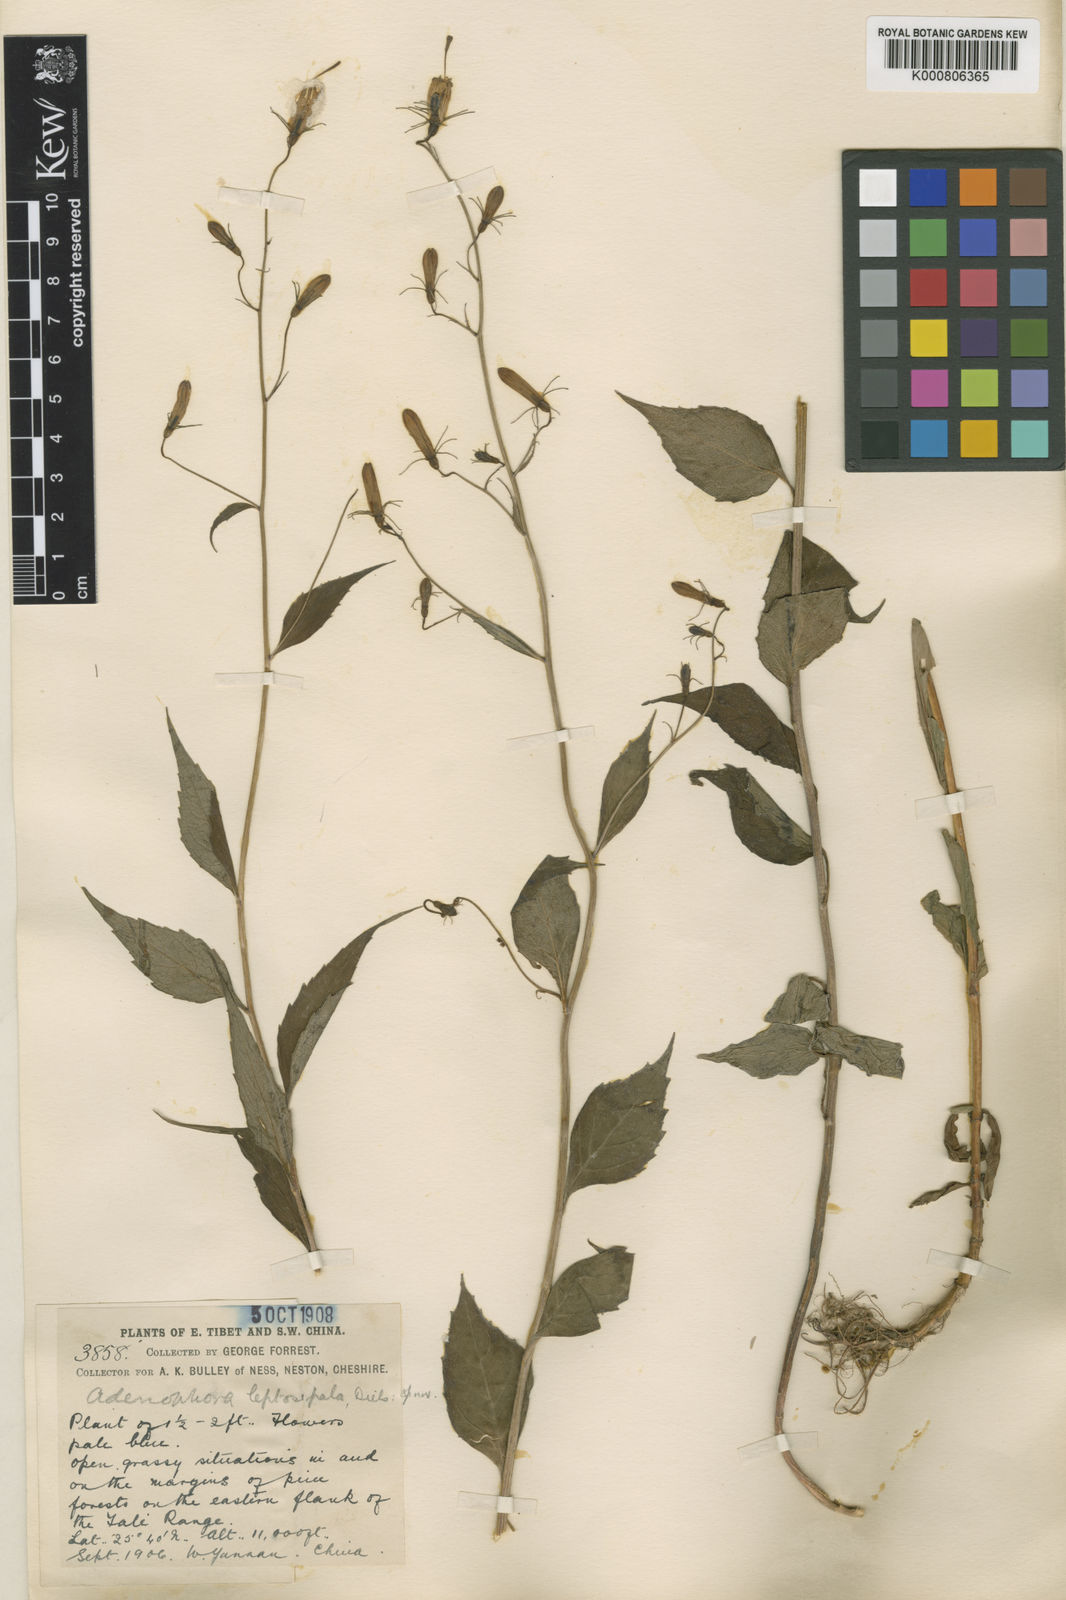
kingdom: Plantae
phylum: Tracheophyta
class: Magnoliopsida
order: Asterales
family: Campanulaceae
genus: Adenophora
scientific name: Adenophora capillaris
